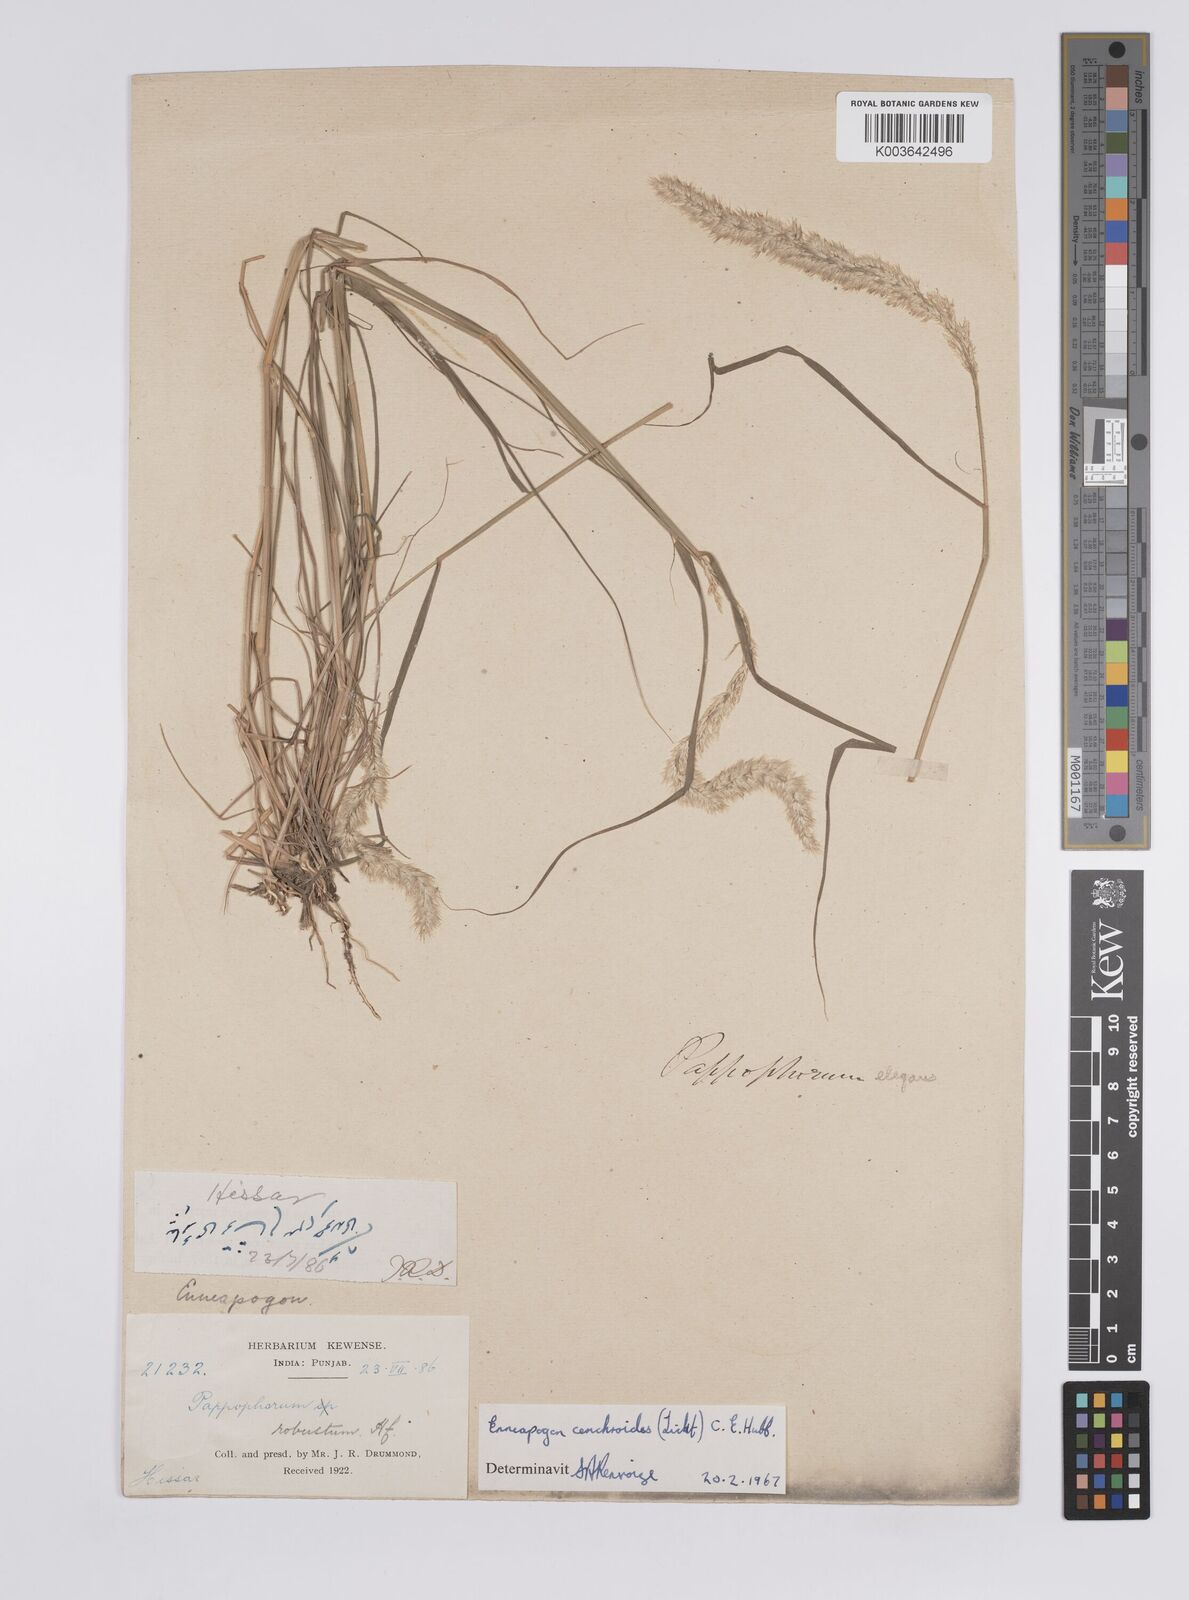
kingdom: Plantae
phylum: Tracheophyta
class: Liliopsida
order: Poales
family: Poaceae
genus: Enneapogon
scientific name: Enneapogon desvauxii
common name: Feather pappus grass
